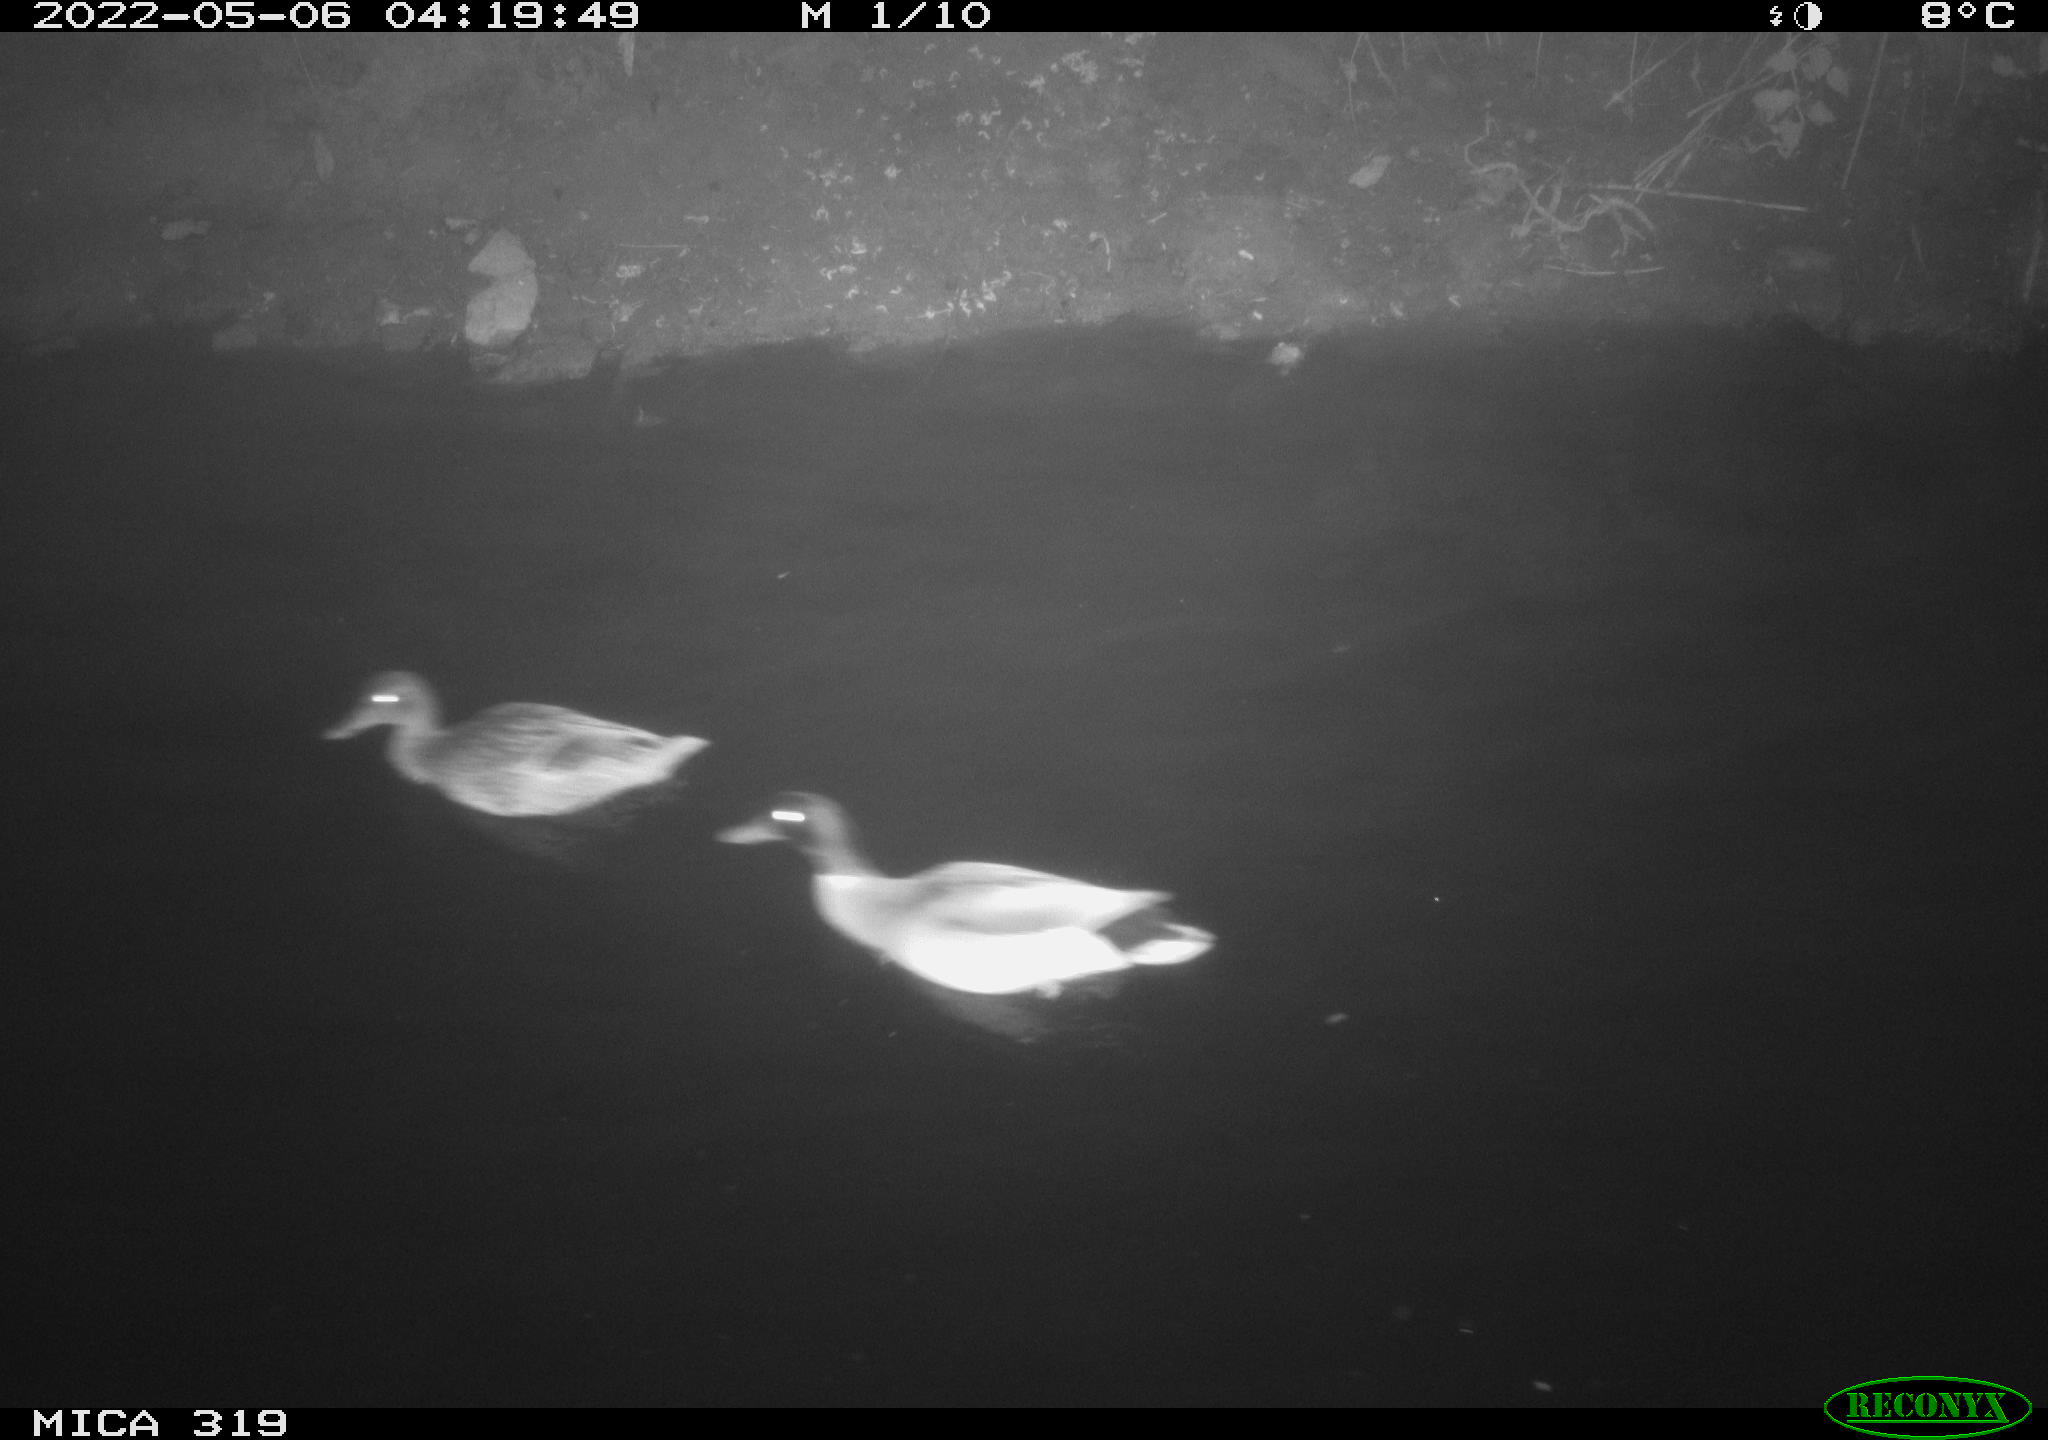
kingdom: Animalia
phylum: Chordata
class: Aves
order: Anseriformes
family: Anatidae
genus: Anas
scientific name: Anas platyrhynchos
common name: Mallard
